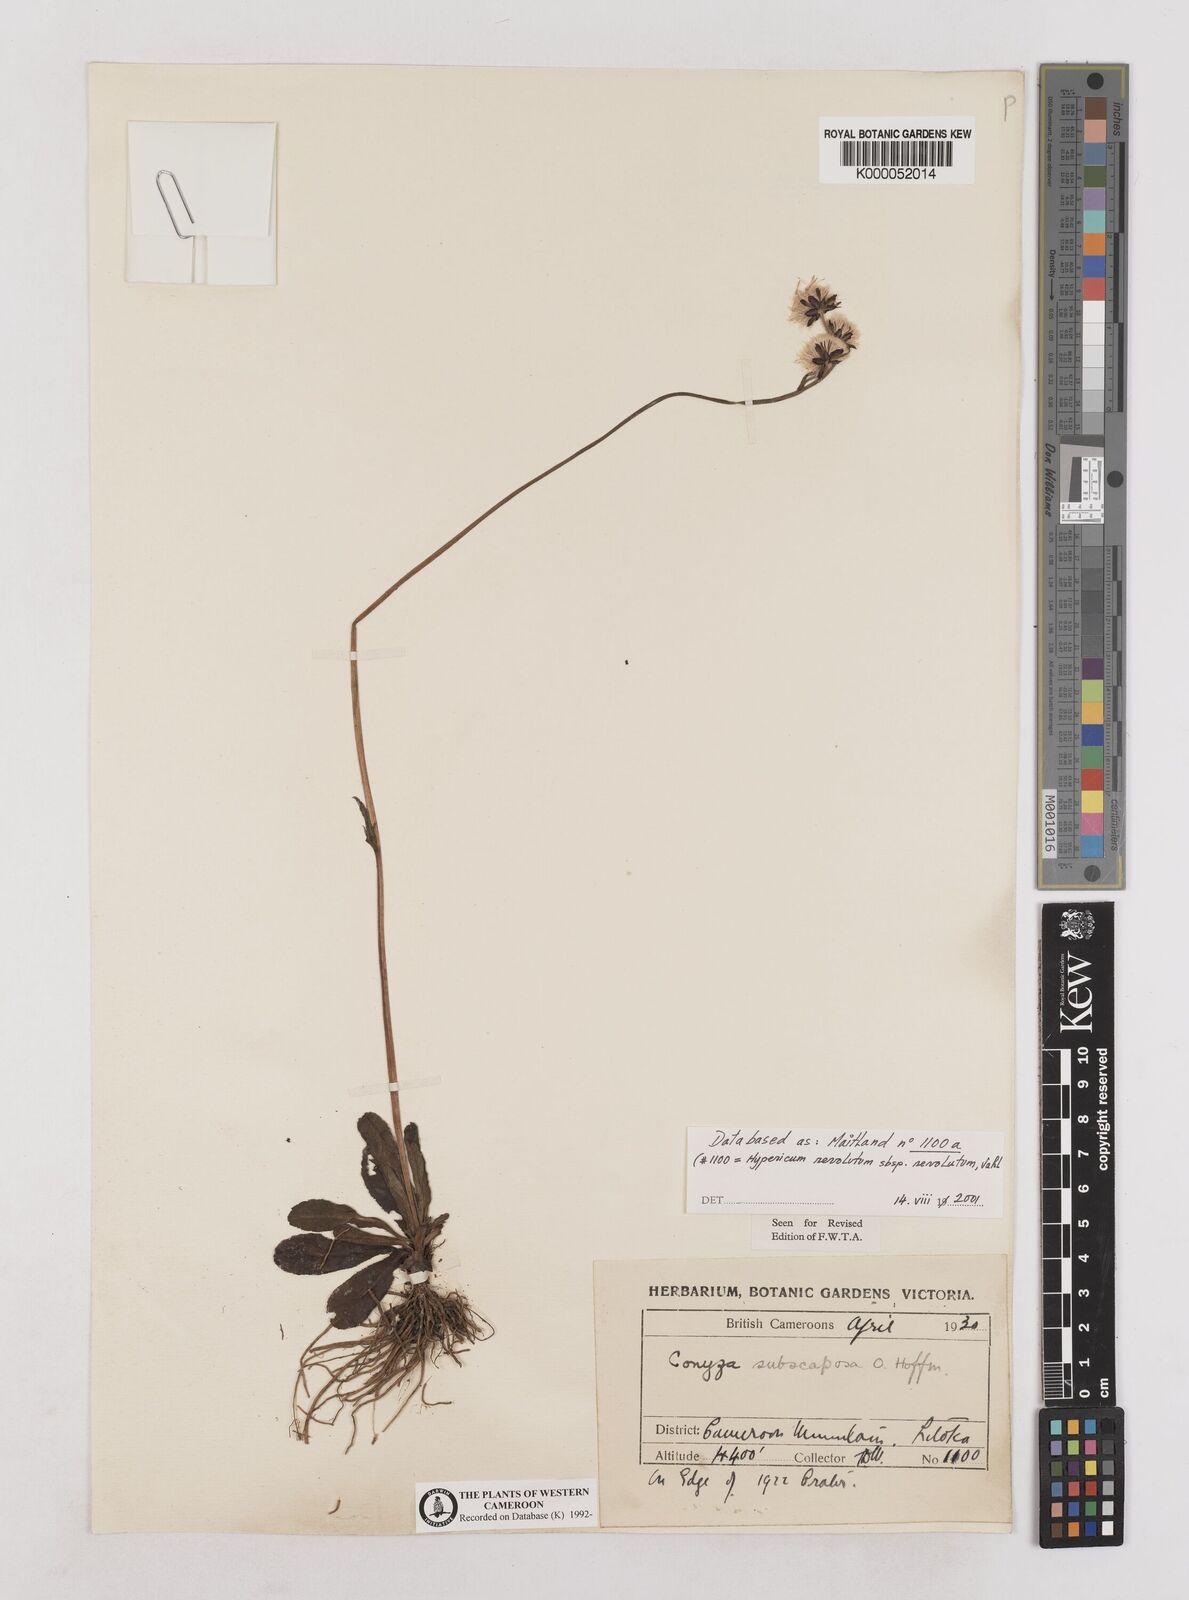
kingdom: Plantae
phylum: Tracheophyta
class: Magnoliopsida
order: Asterales
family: Asteraceae
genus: Eschenbachia
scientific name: Eschenbachia subscaposa
